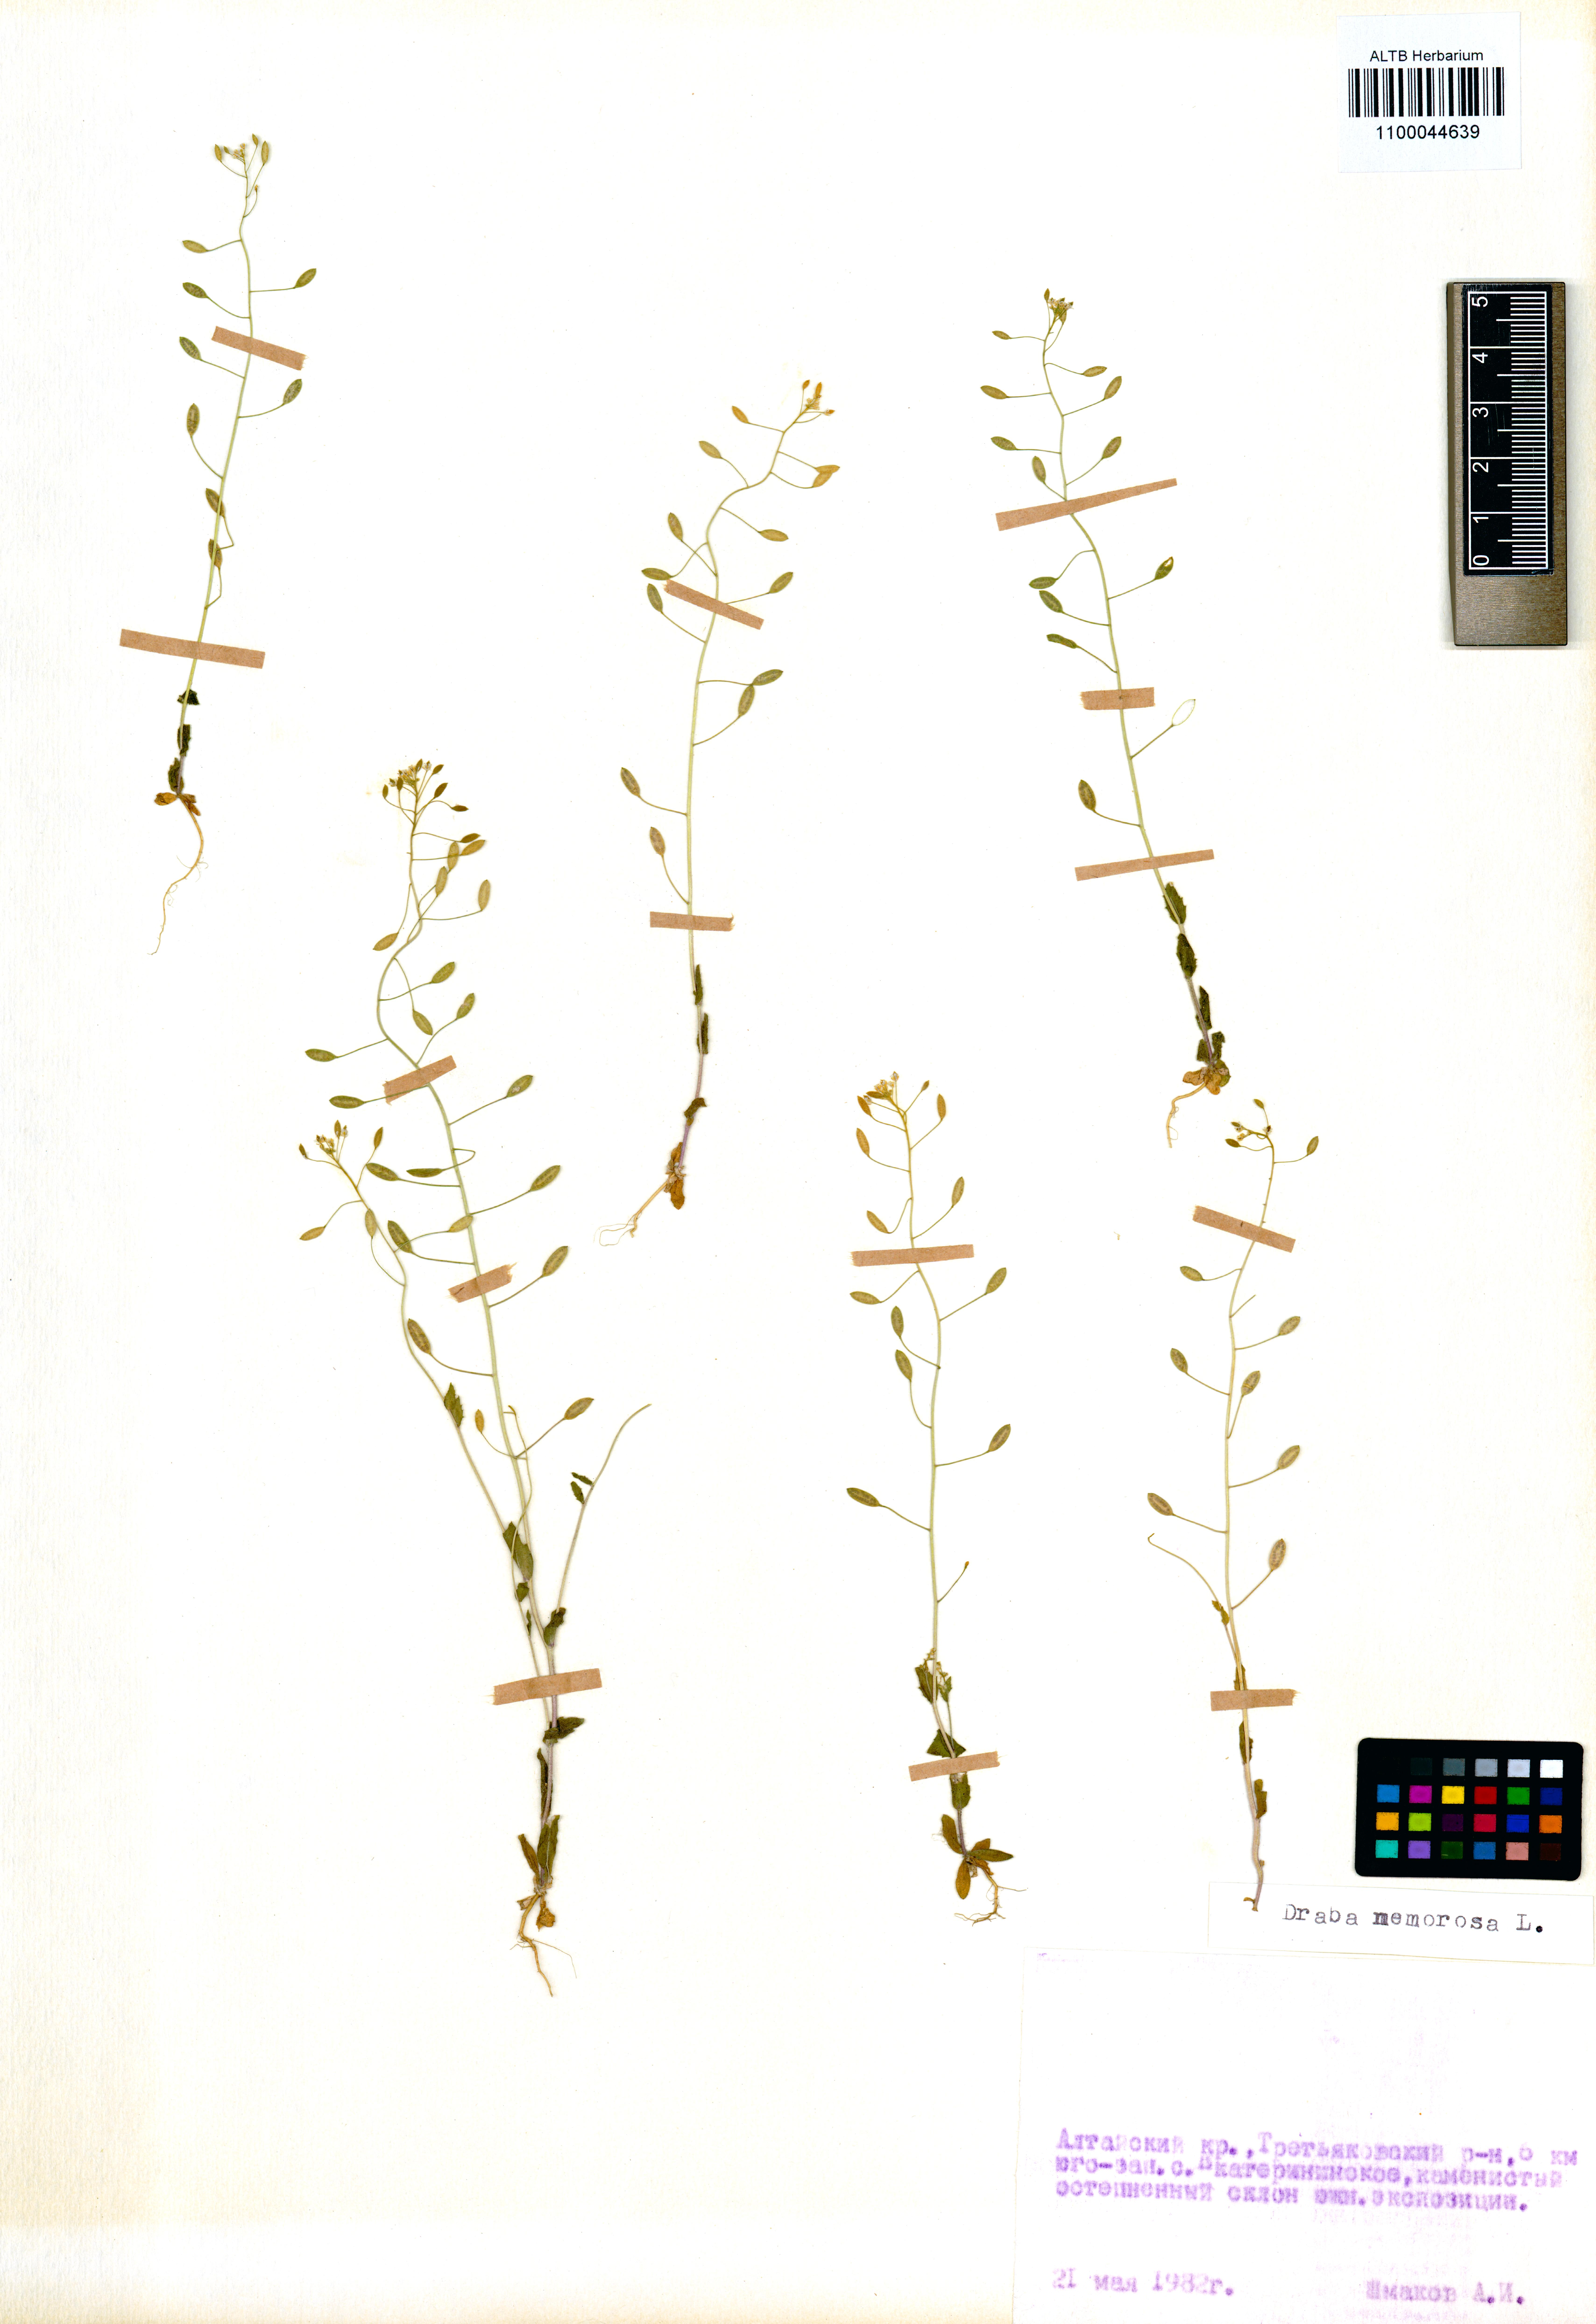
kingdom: Plantae
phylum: Tracheophyta
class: Magnoliopsida
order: Brassicales
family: Brassicaceae
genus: Draba
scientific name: Draba nemorosa
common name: Wood whitlow-grass
